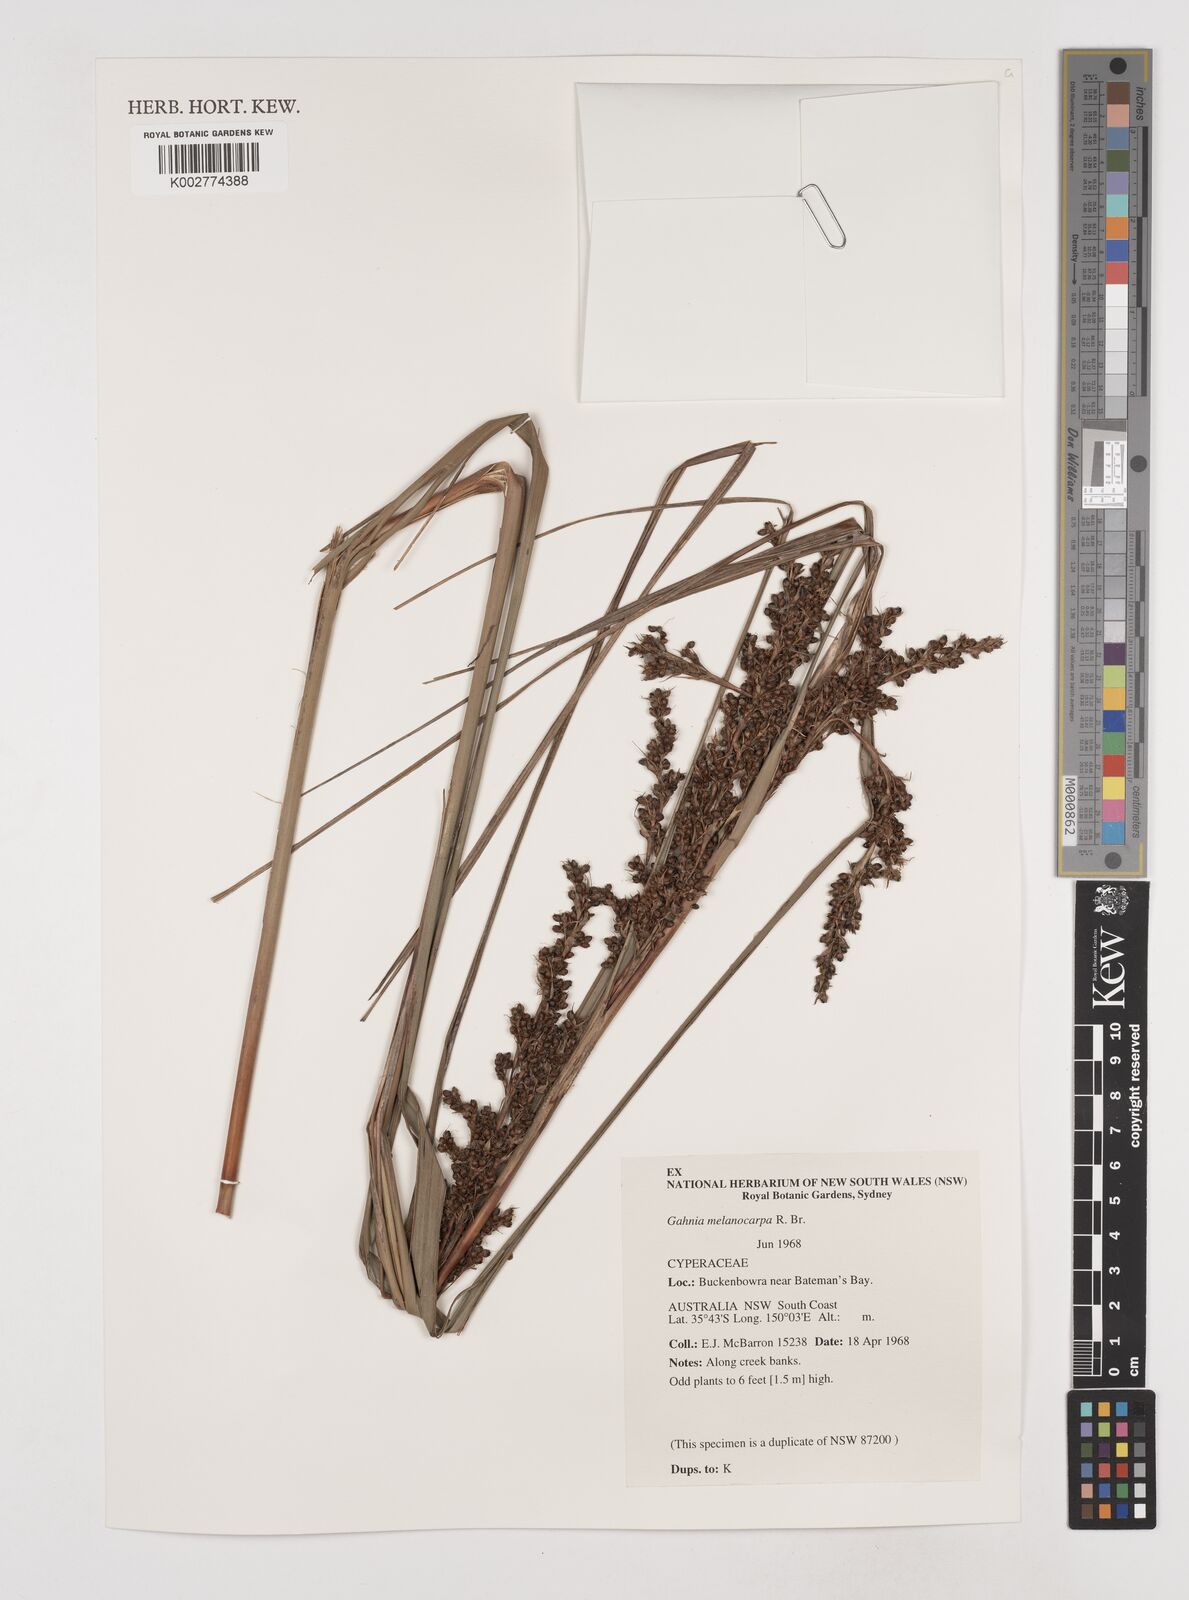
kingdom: Plantae
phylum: Tracheophyta
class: Liliopsida
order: Poales
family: Cyperaceae
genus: Gahnia
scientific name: Gahnia melanocarpa
